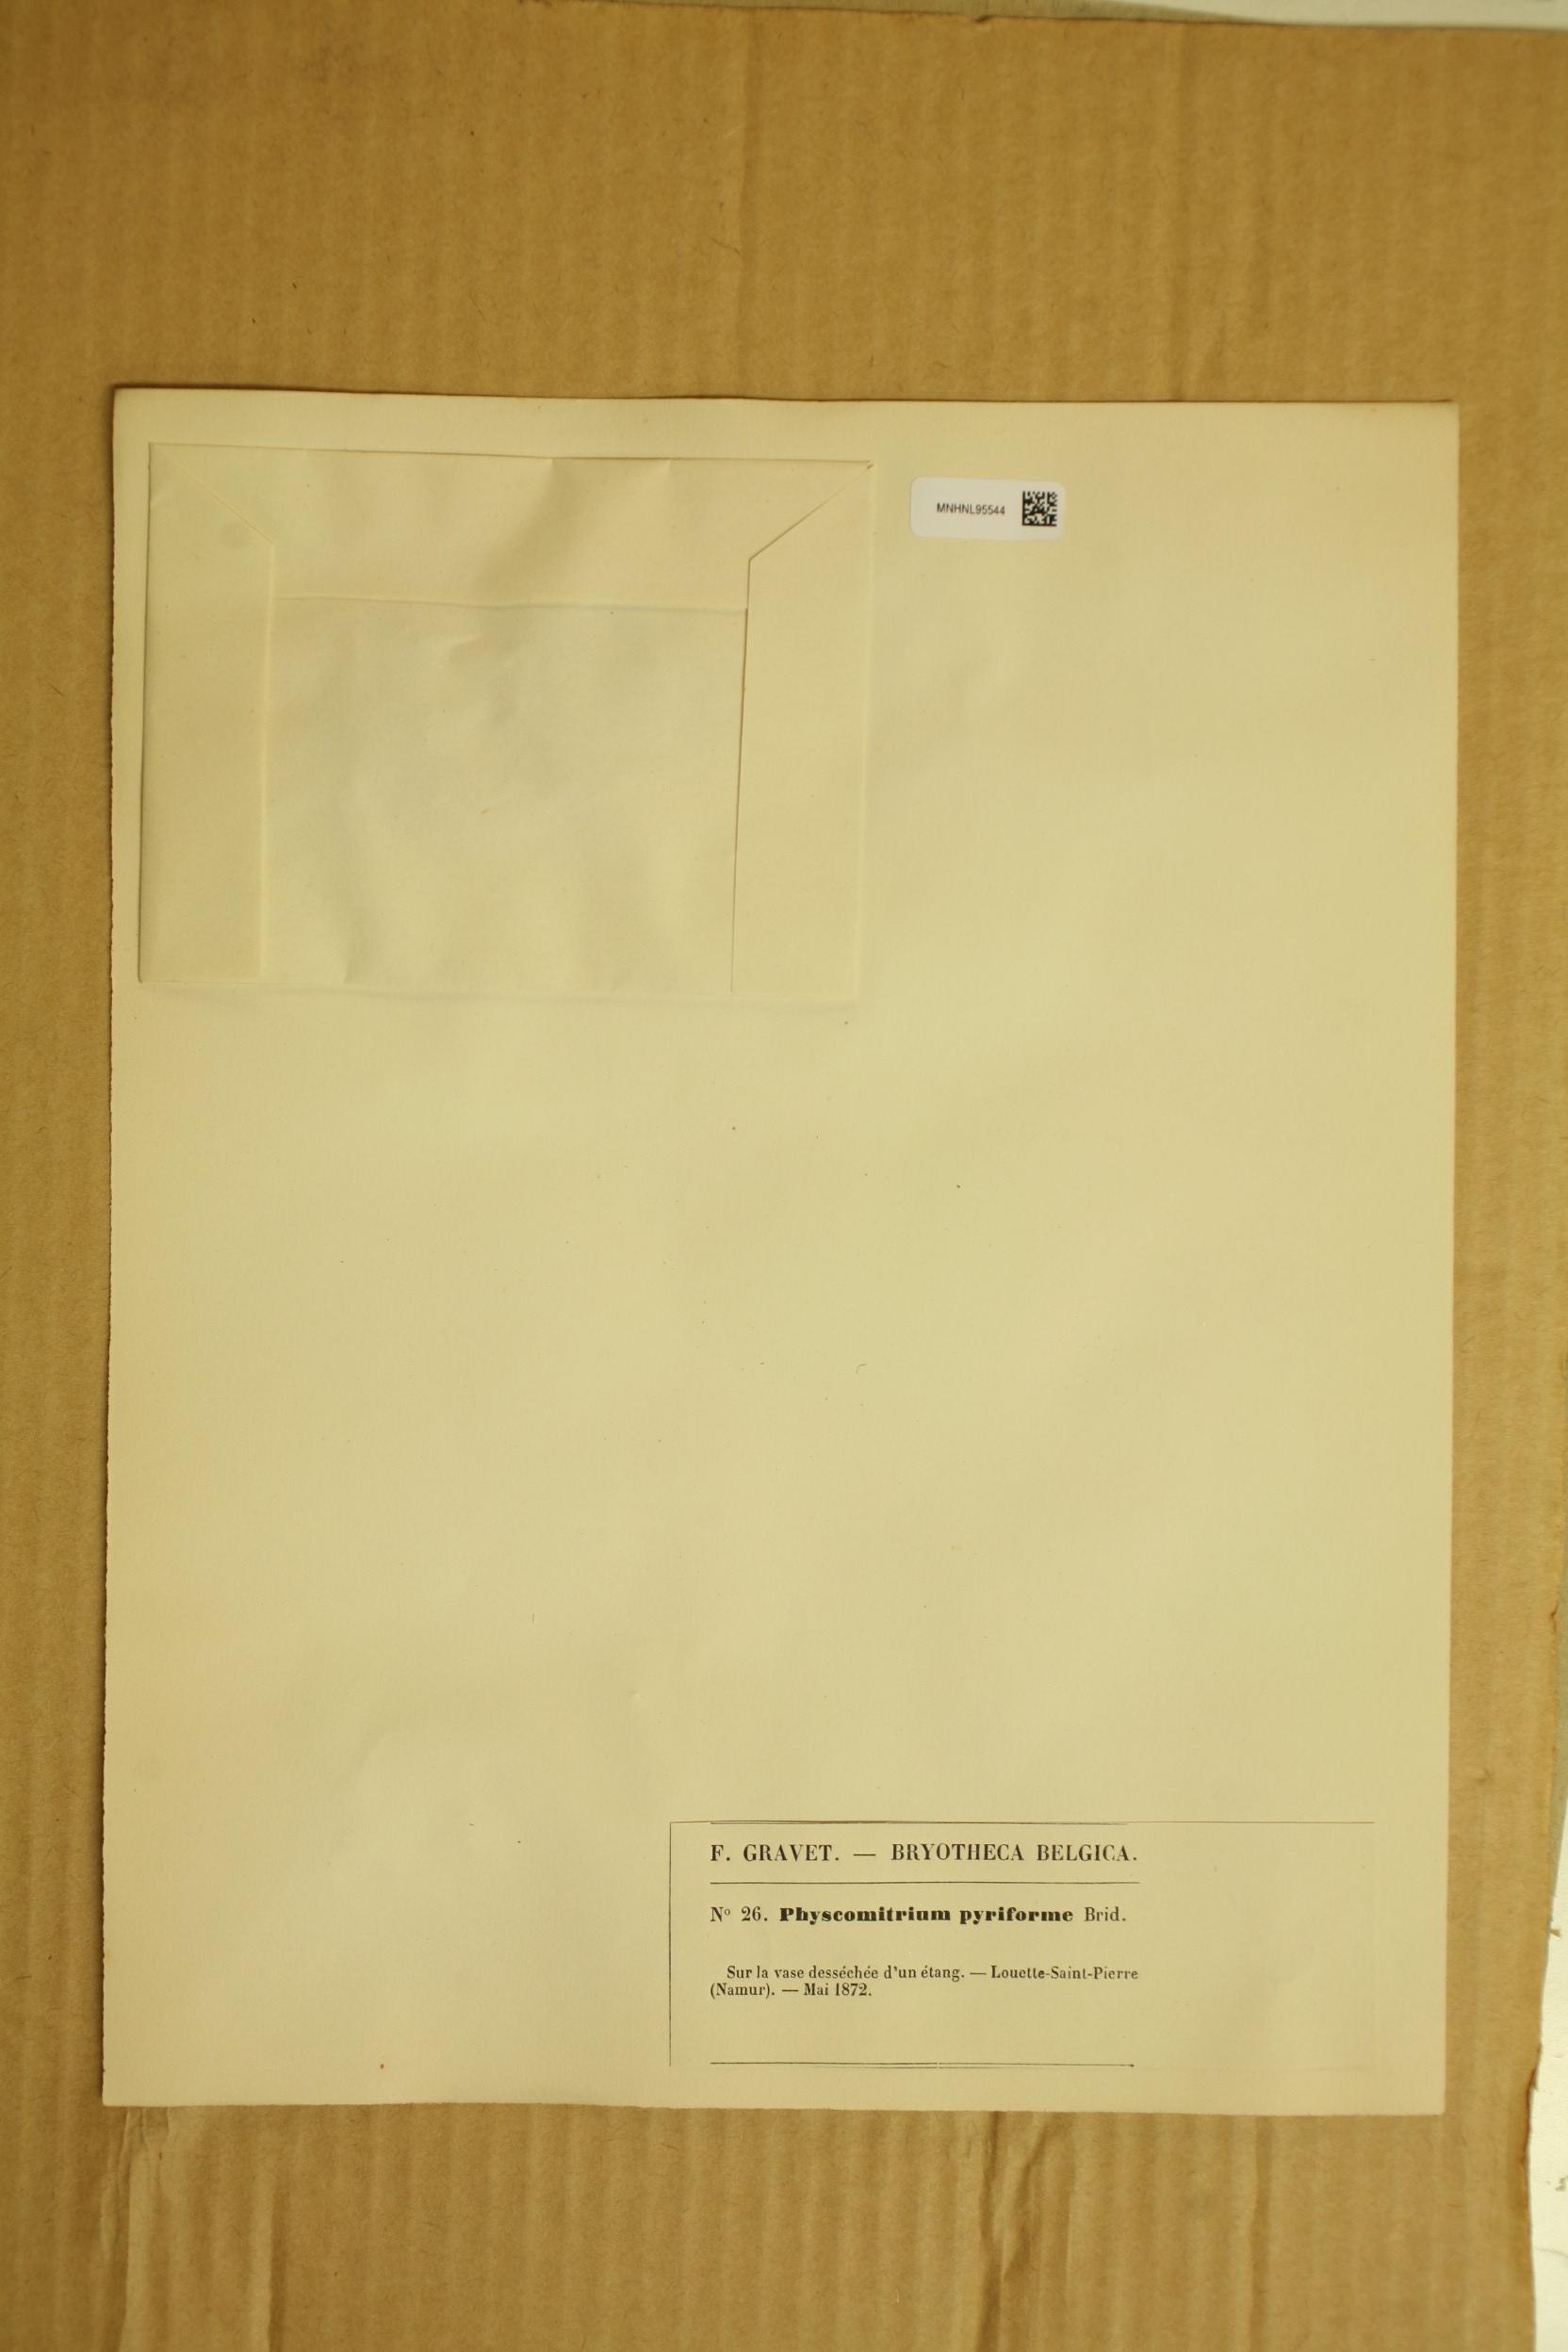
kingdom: Plantae
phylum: Bryophyta
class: Bryopsida
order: Funariales
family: Funariaceae
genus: Physcomitrium
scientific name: Physcomitrium pyriforme
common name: Common bladder-moss
